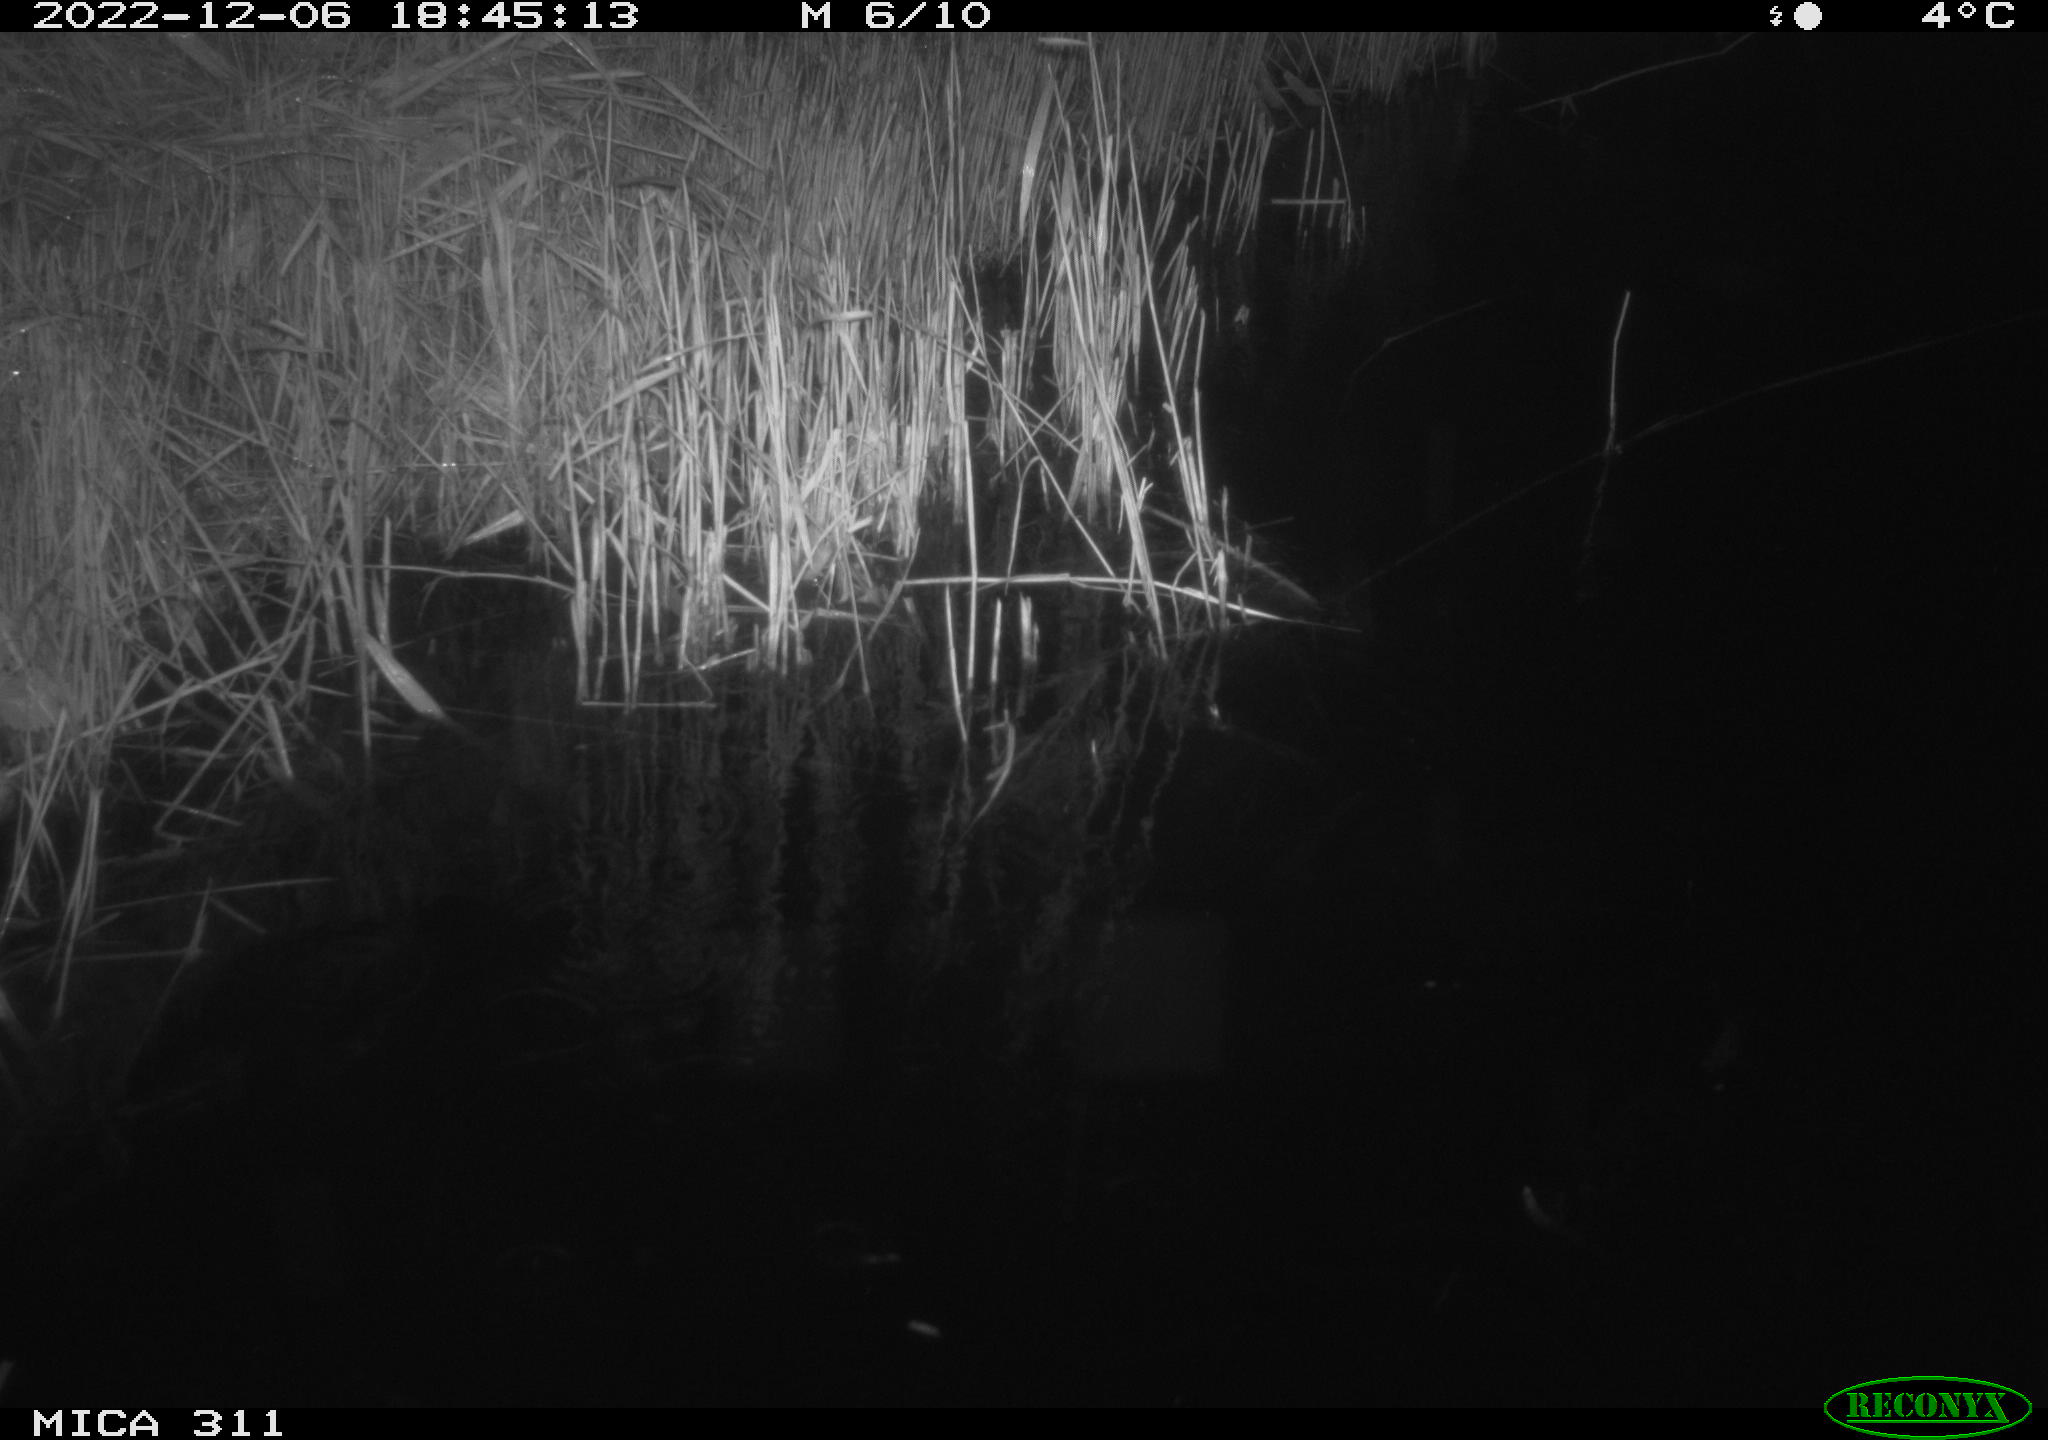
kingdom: Animalia
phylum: Chordata
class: Mammalia
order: Rodentia
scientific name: Rodentia
